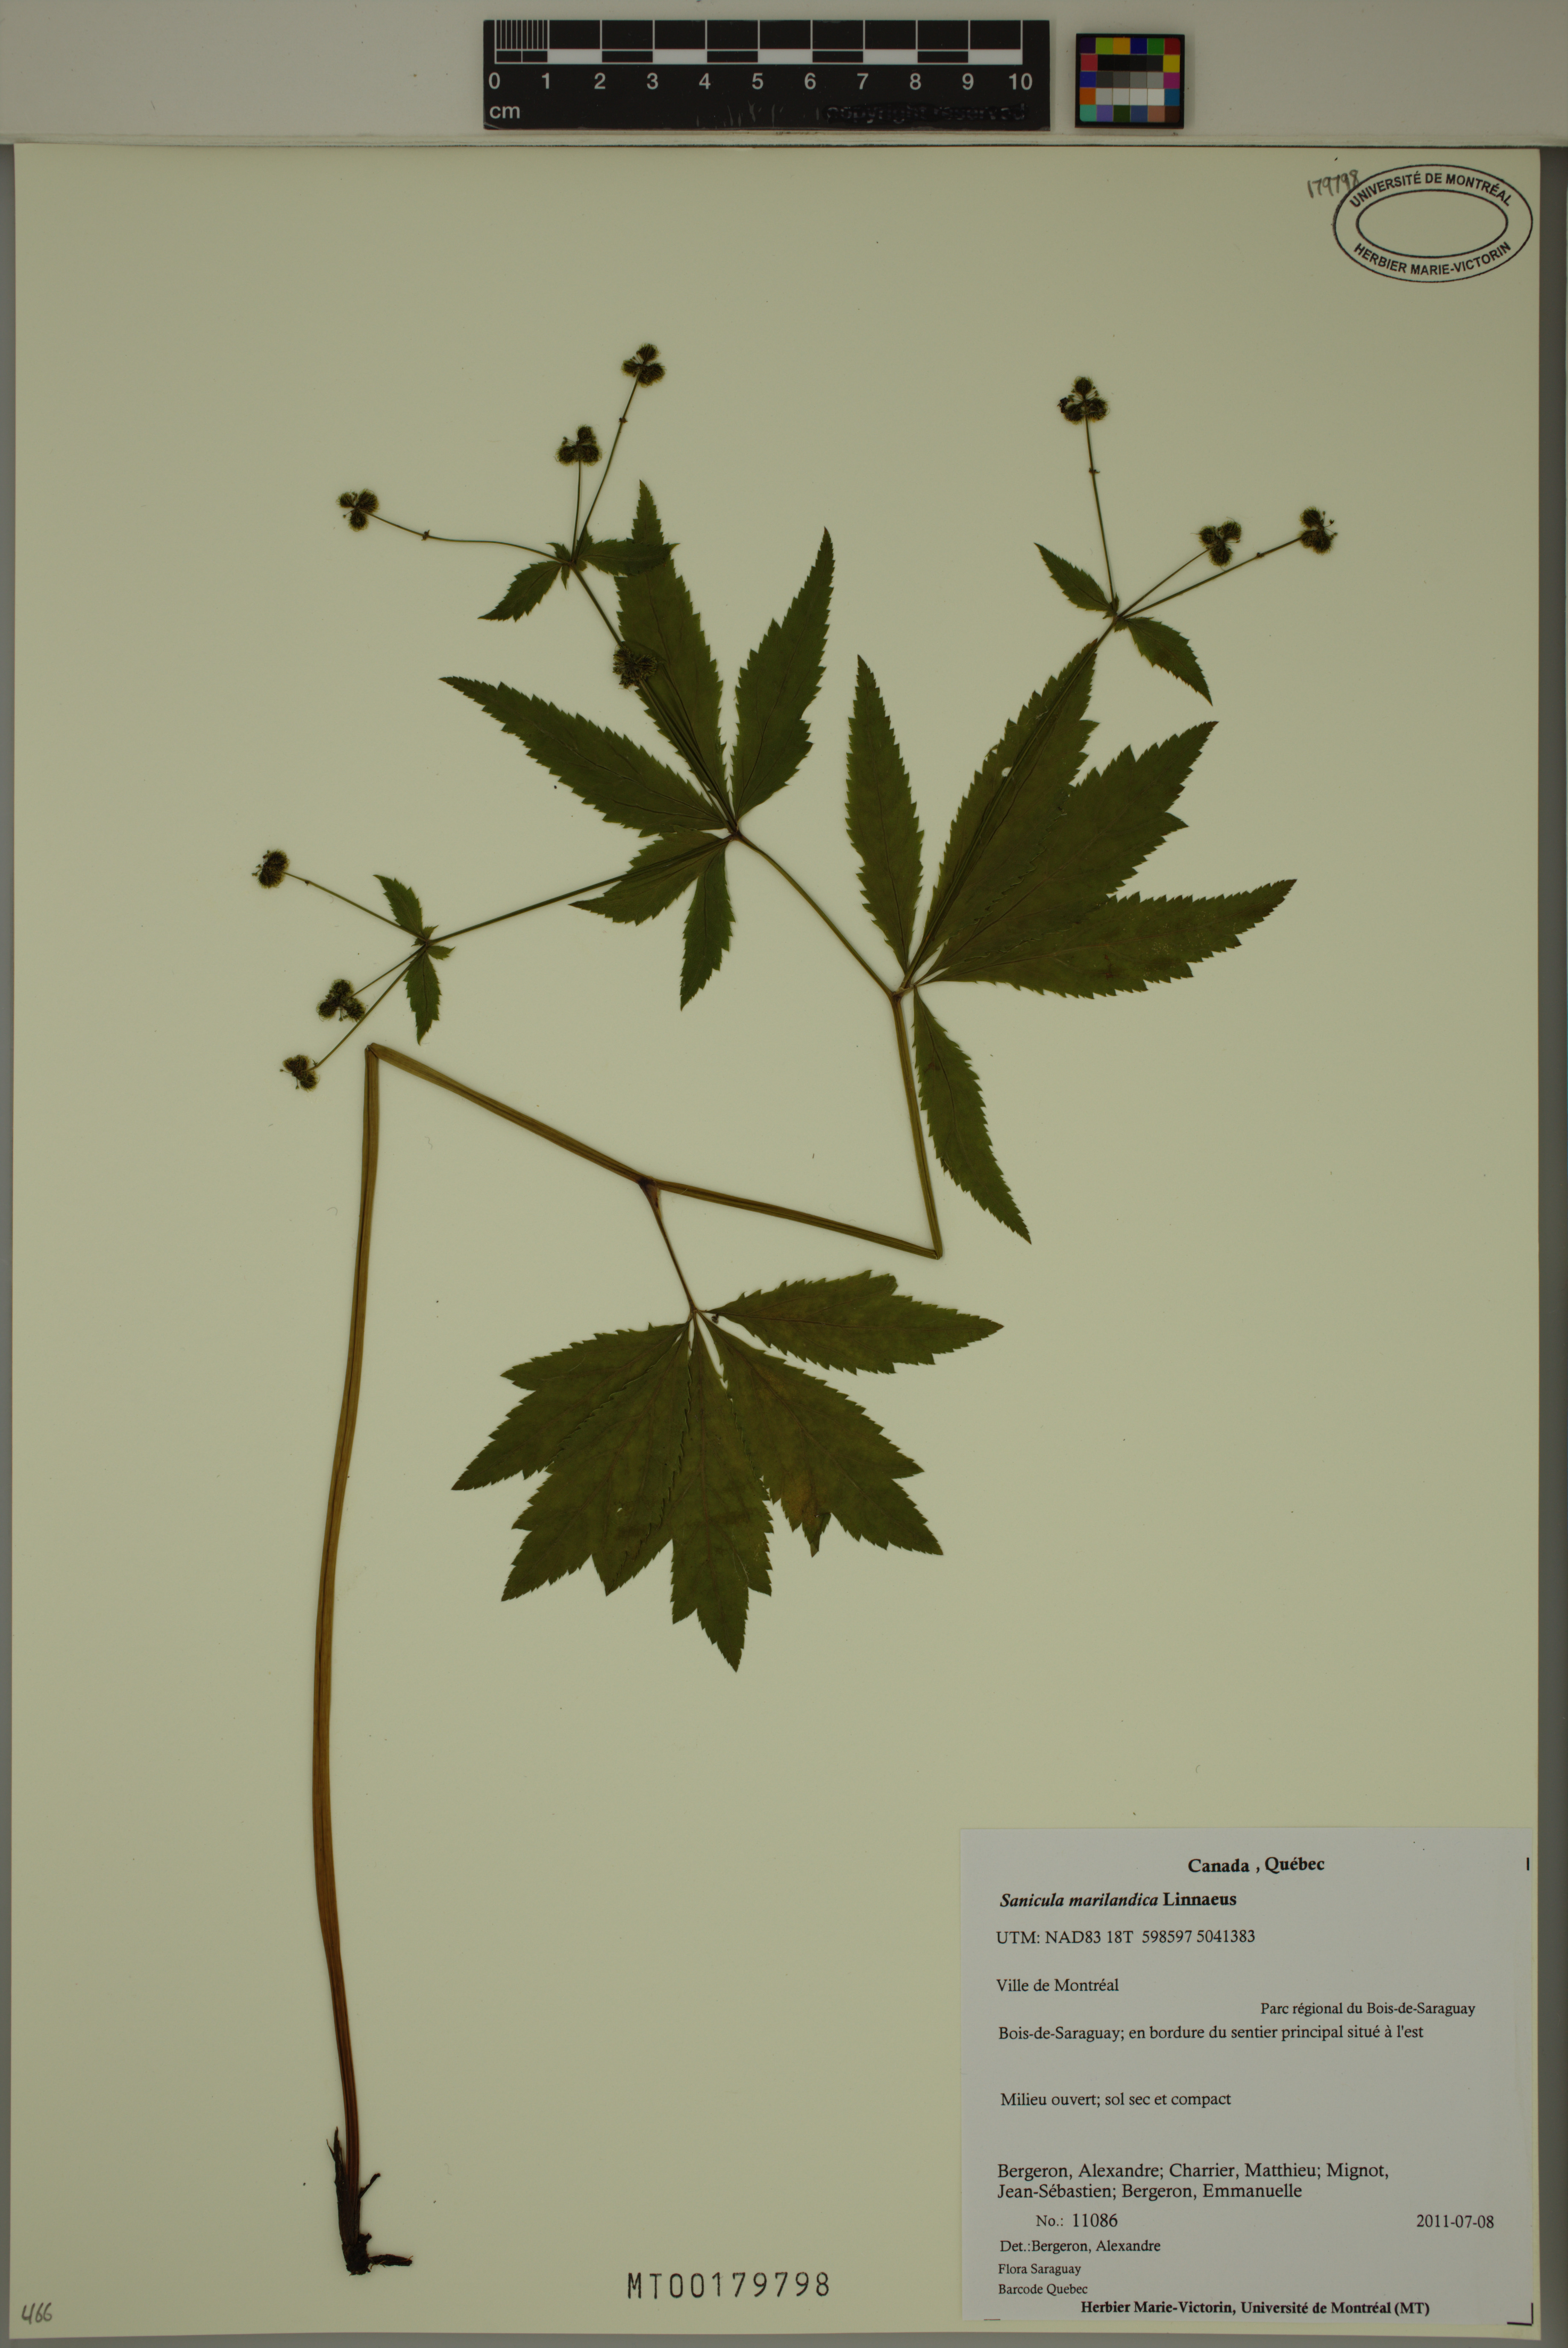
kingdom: Plantae
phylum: Tracheophyta
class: Magnoliopsida
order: Apiales
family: Apiaceae
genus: Sanicula
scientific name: Sanicula marilandica
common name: Black snakeroot
